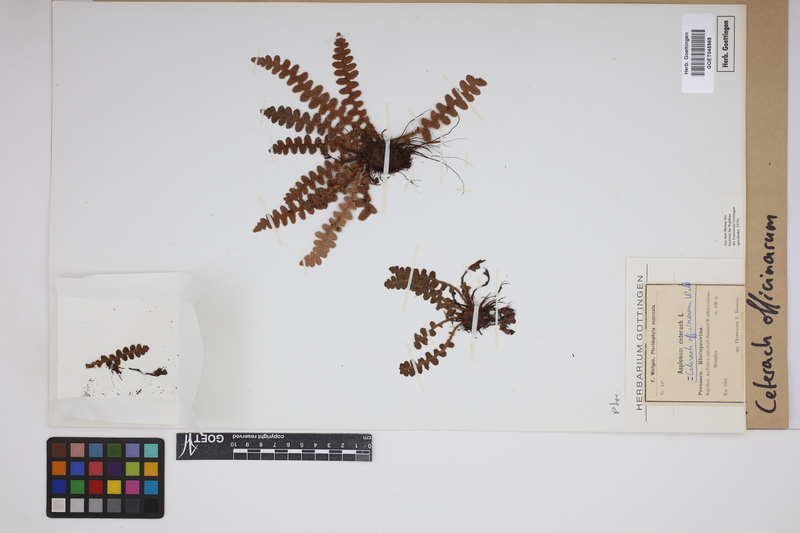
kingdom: Plantae
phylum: Tracheophyta
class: Polypodiopsida
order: Polypodiales
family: Aspleniaceae
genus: Asplenium
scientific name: Asplenium ceterach
